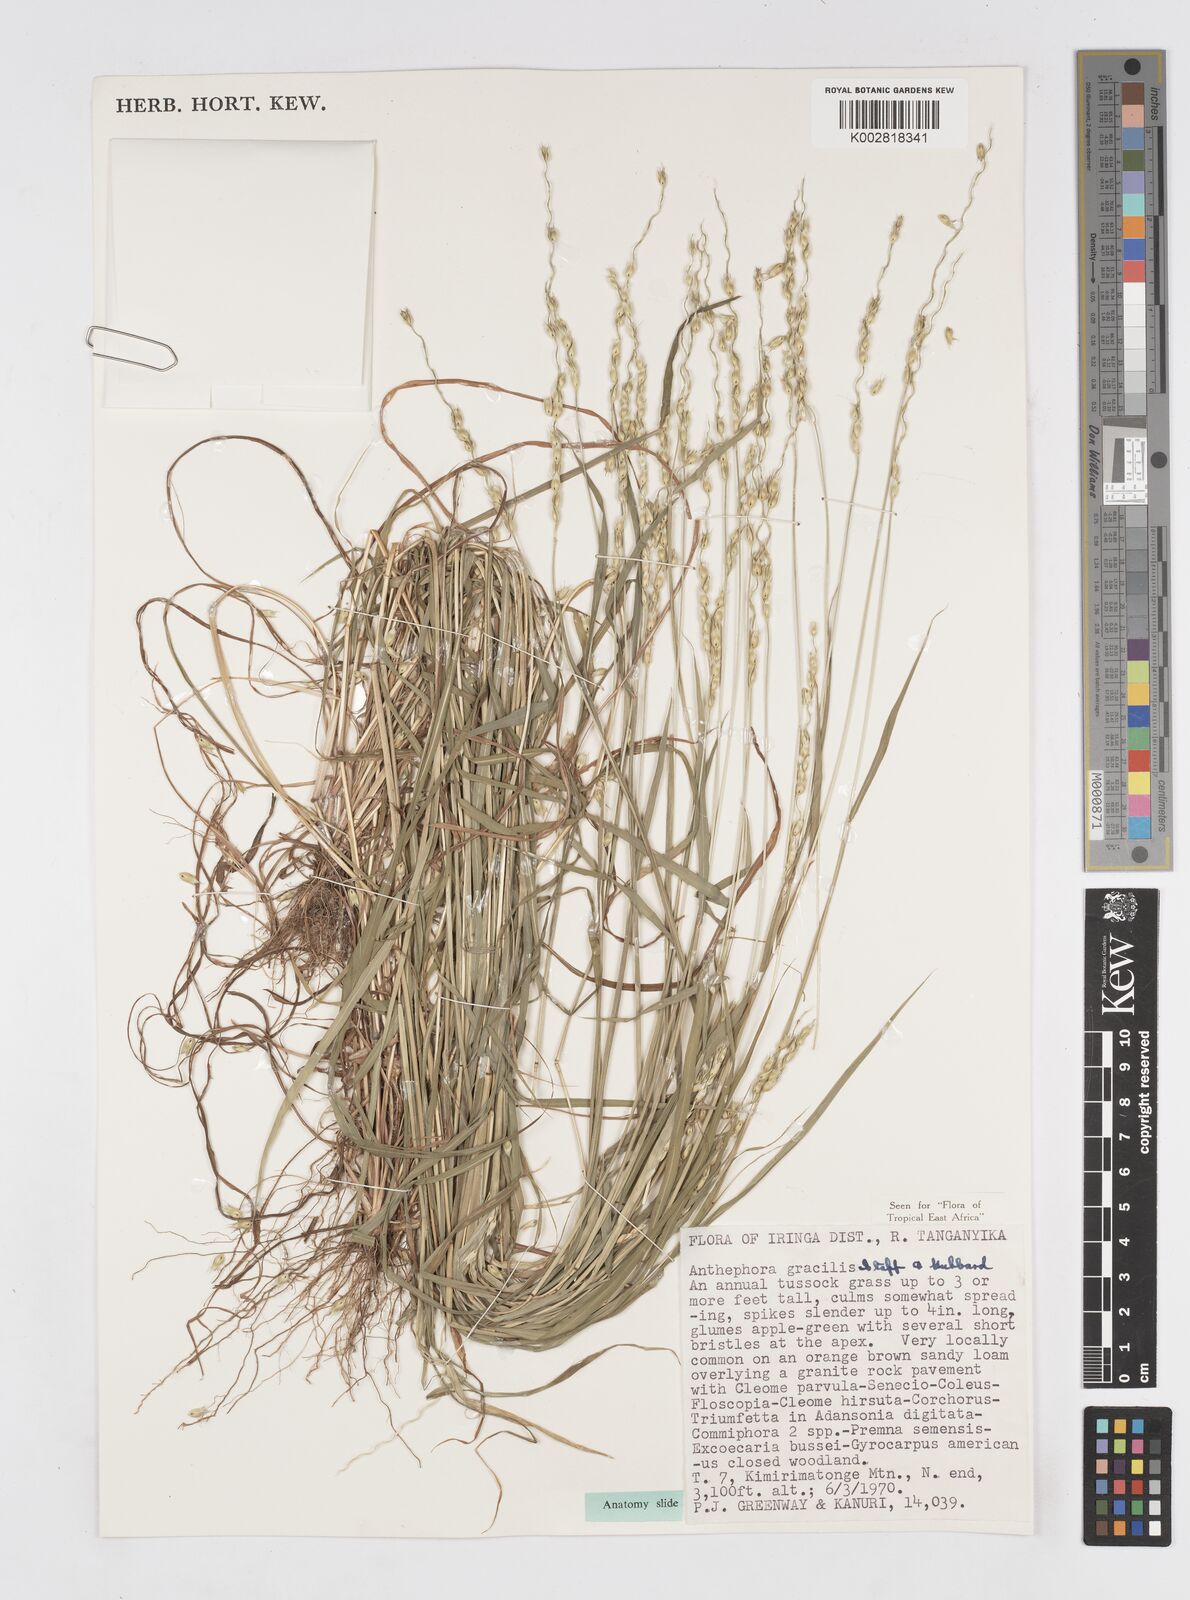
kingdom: Plantae
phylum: Tracheophyta
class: Liliopsida
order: Poales
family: Poaceae
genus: Anthephora
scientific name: Anthephora truncata
